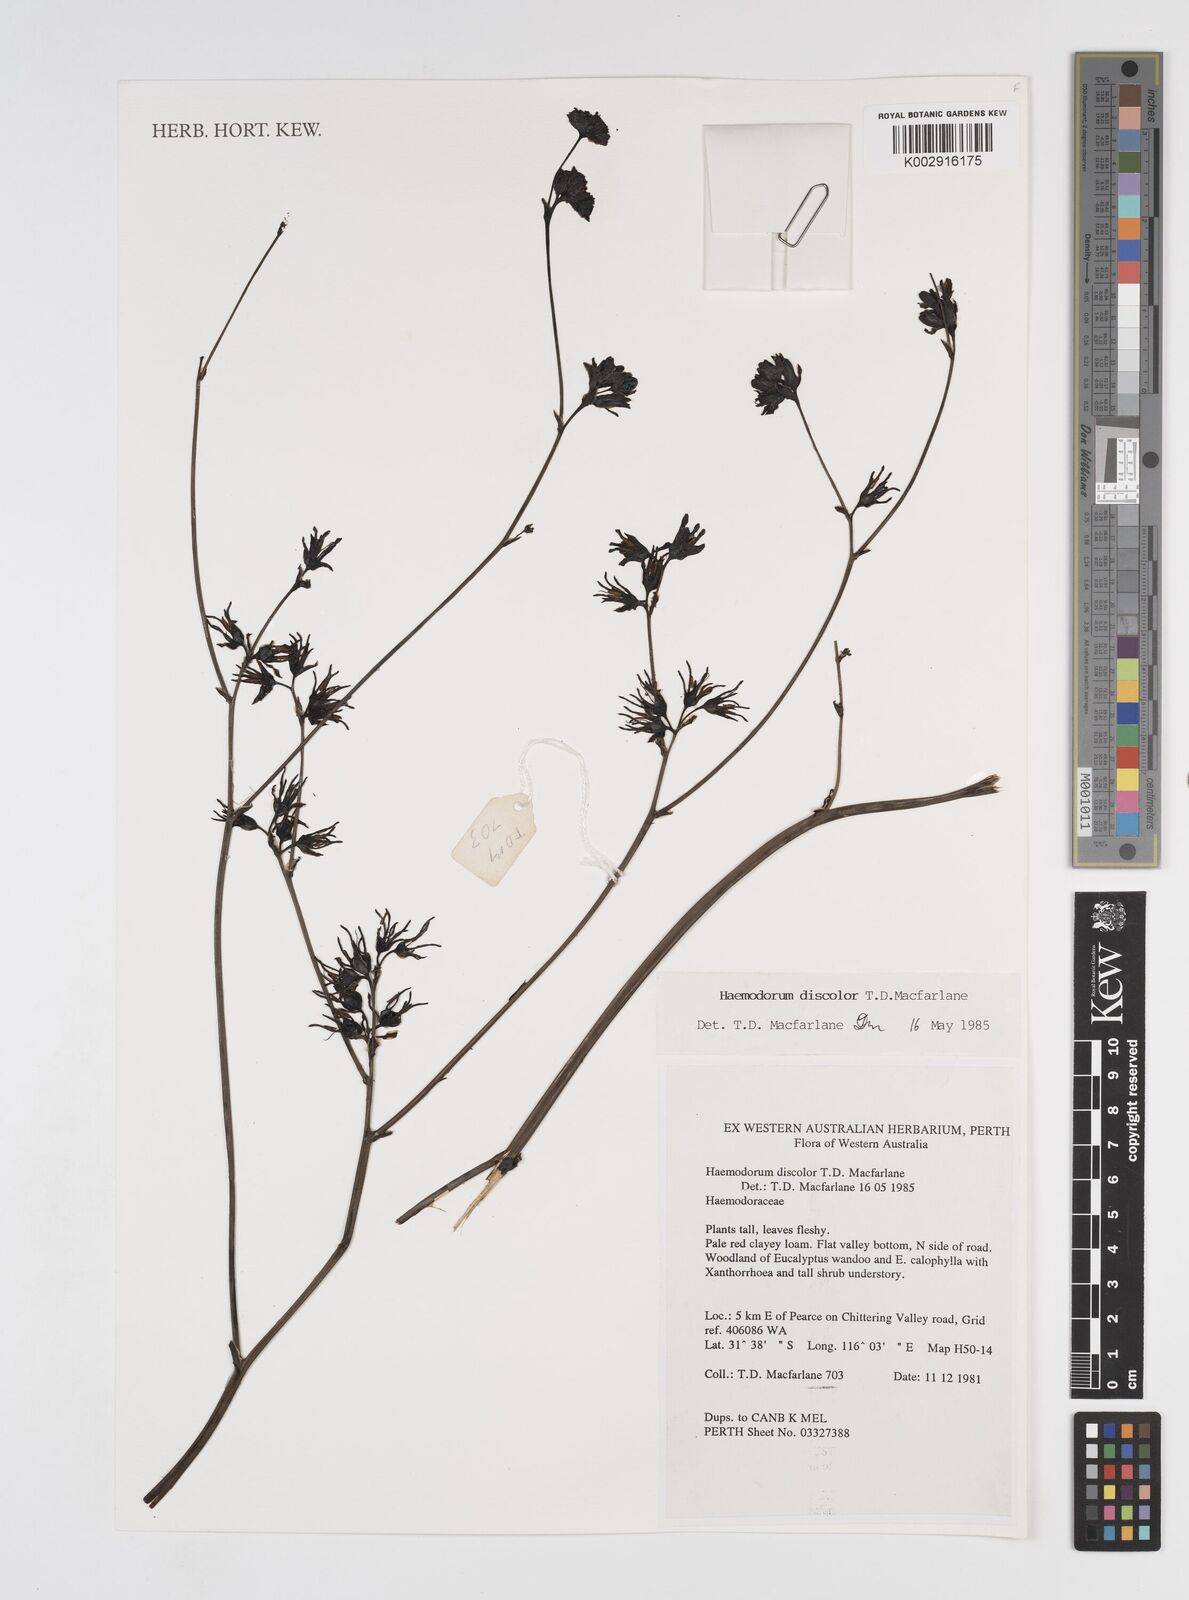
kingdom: Plantae
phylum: Tracheophyta
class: Liliopsida
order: Commelinales
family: Haemodoraceae
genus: Haemodorum
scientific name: Haemodorum discolor
